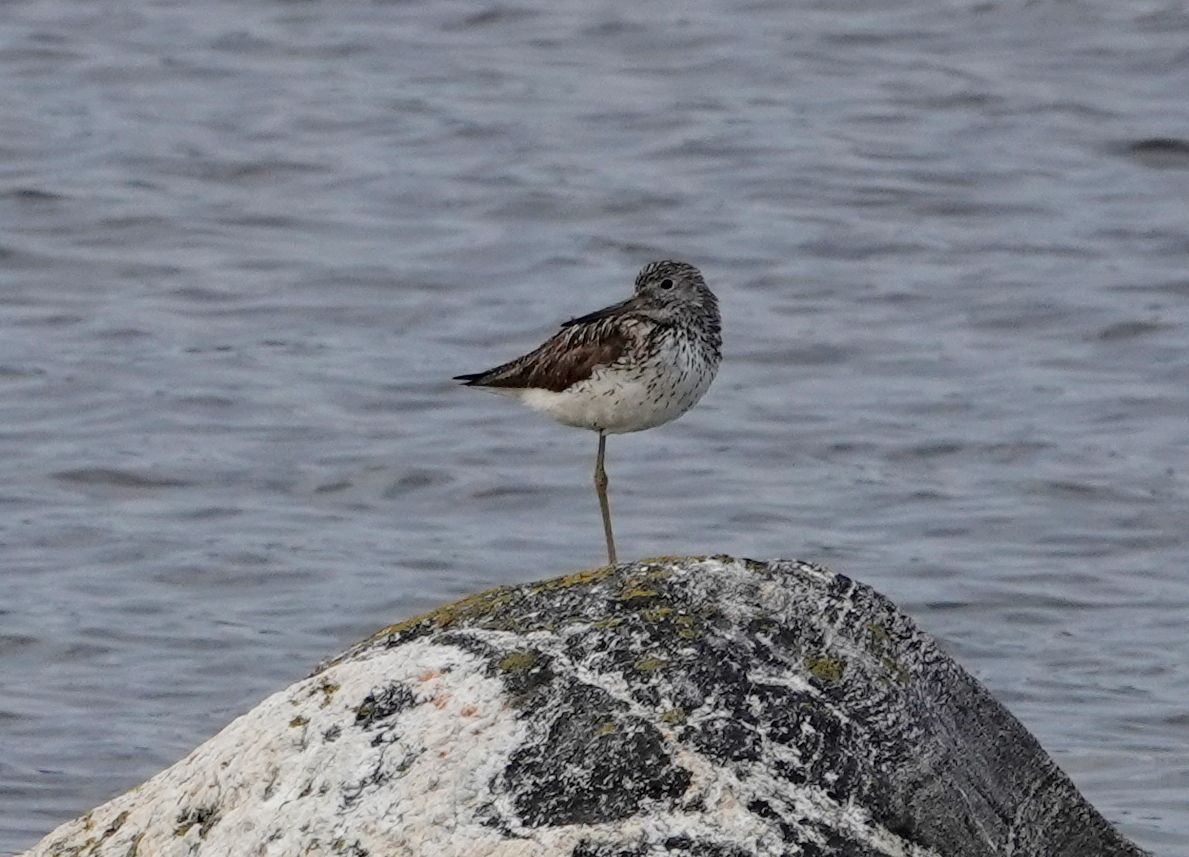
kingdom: Animalia
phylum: Chordata
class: Aves
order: Charadriiformes
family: Scolopacidae
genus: Tringa
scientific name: Tringa nebularia
